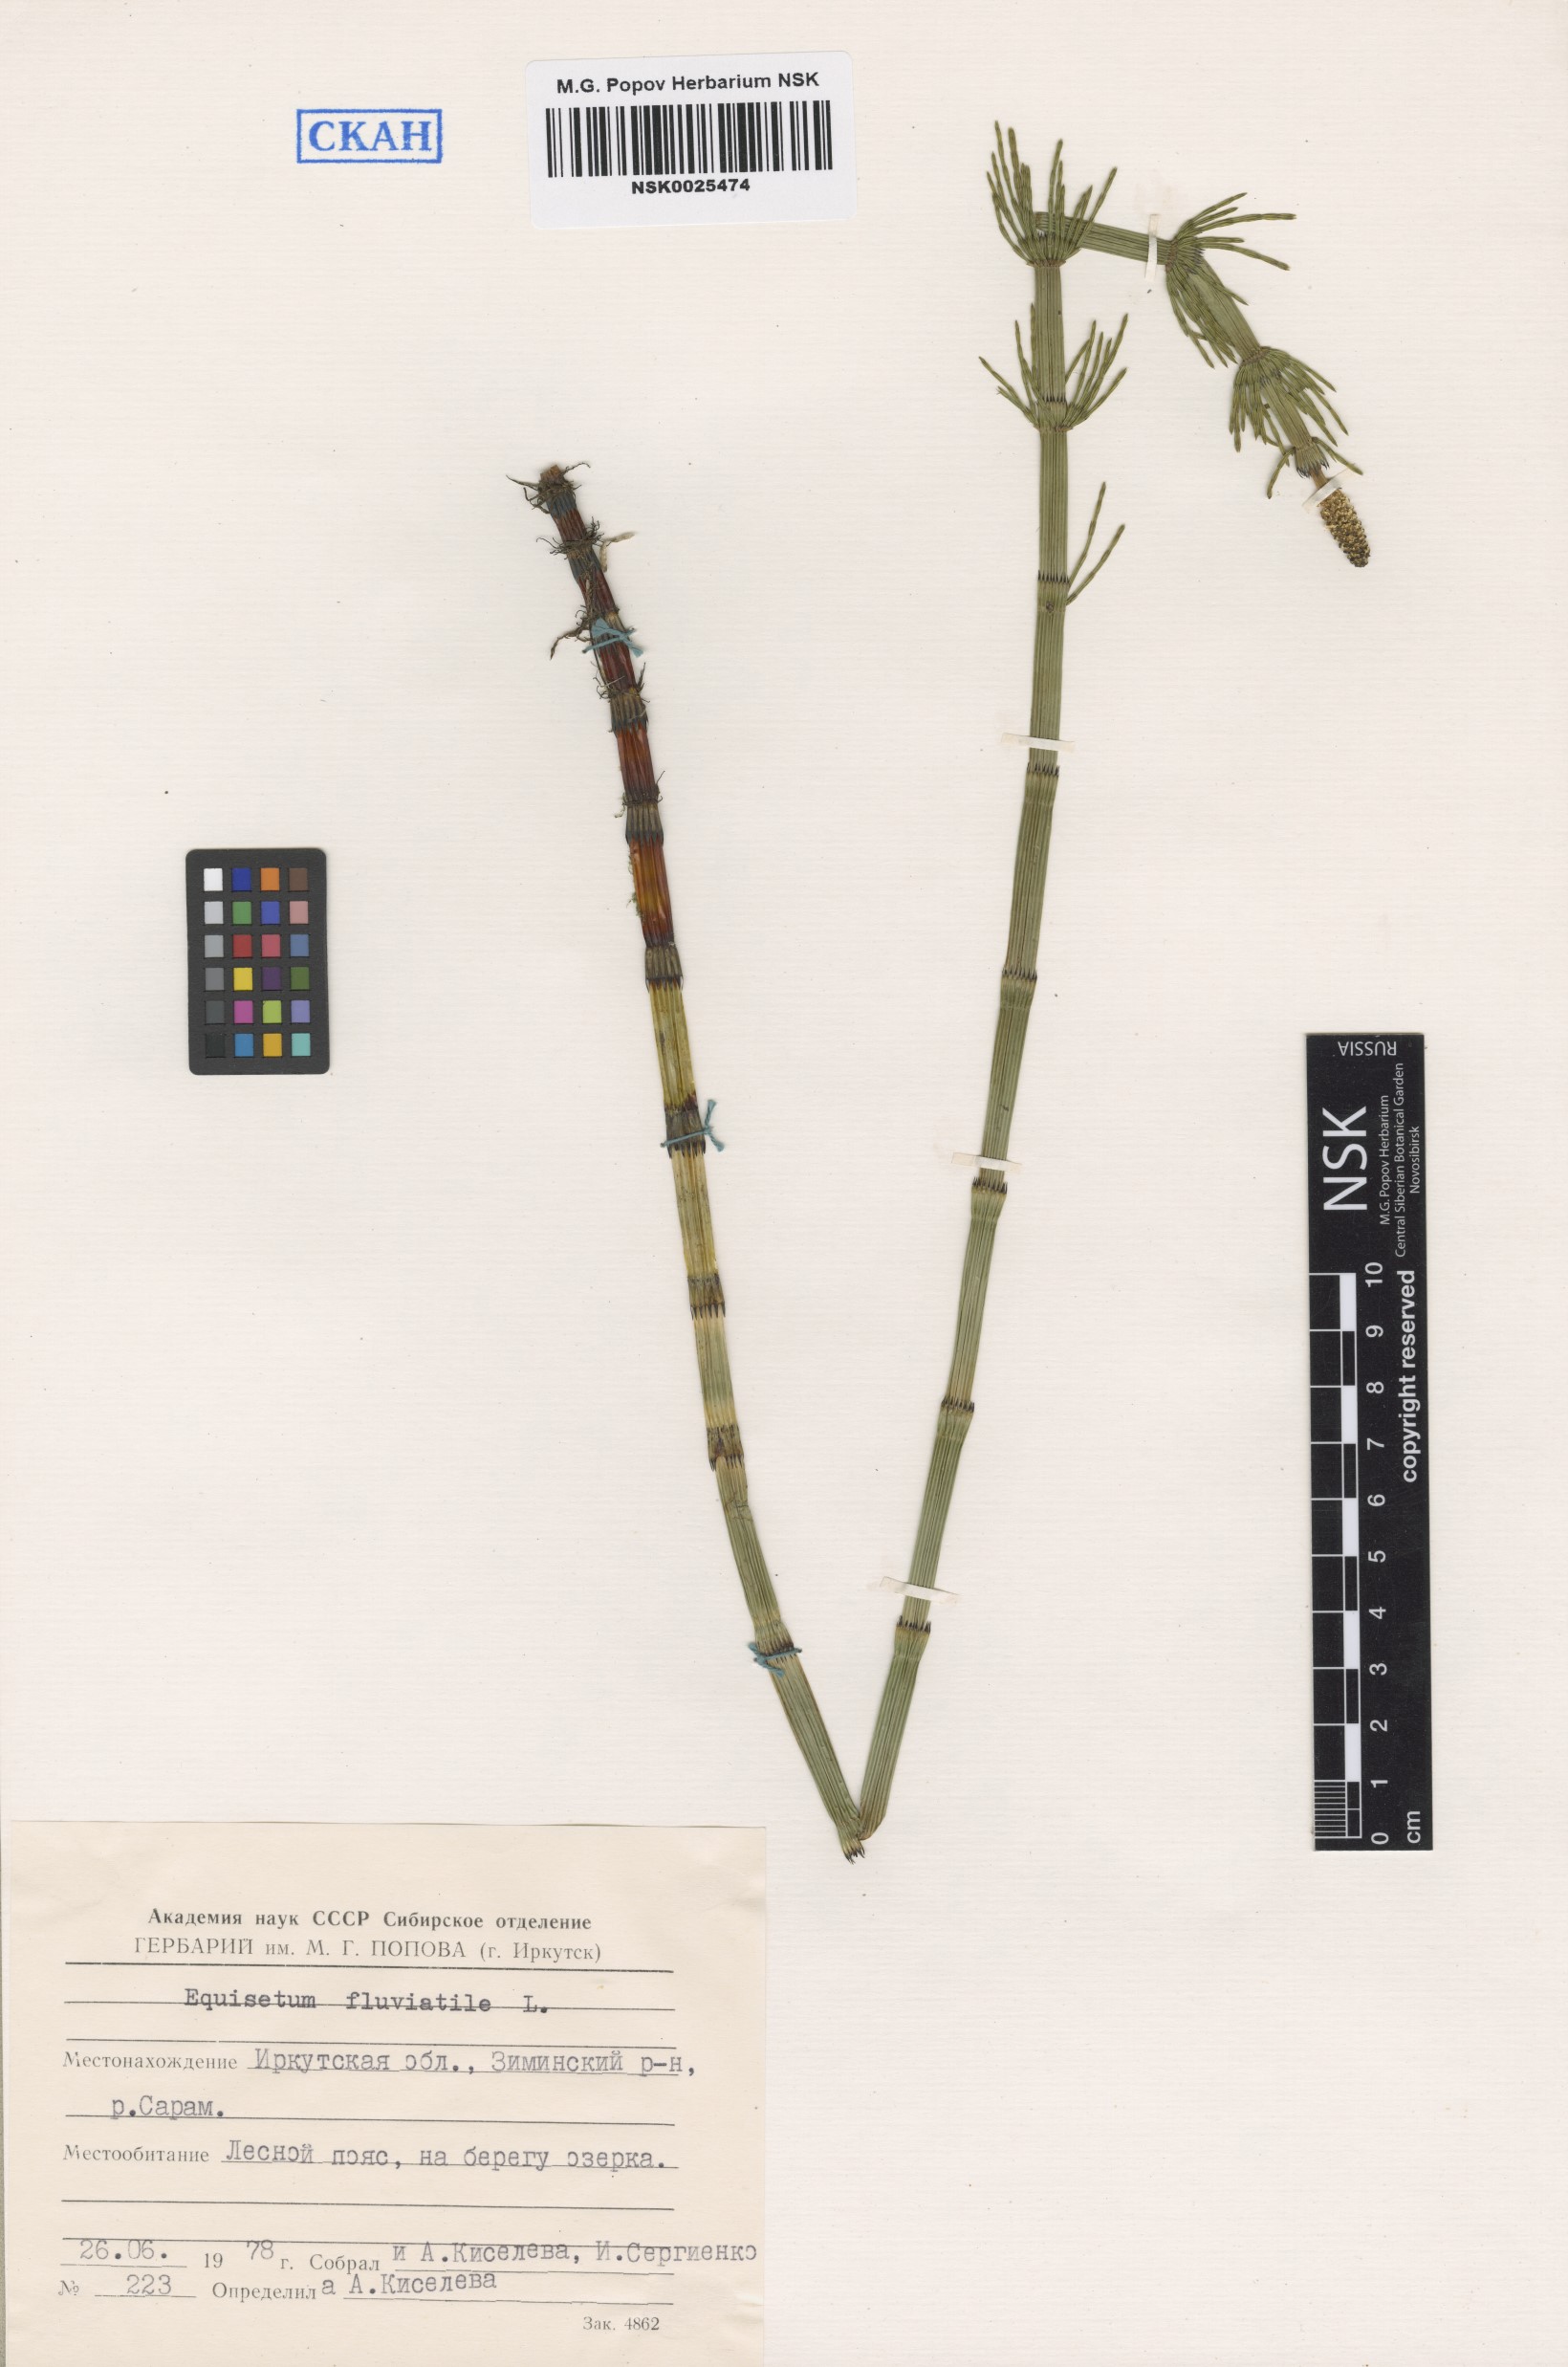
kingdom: Plantae
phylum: Tracheophyta
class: Polypodiopsida
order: Equisetales
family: Equisetaceae
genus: Equisetum
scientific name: Equisetum fluviatile
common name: Water horsetail
